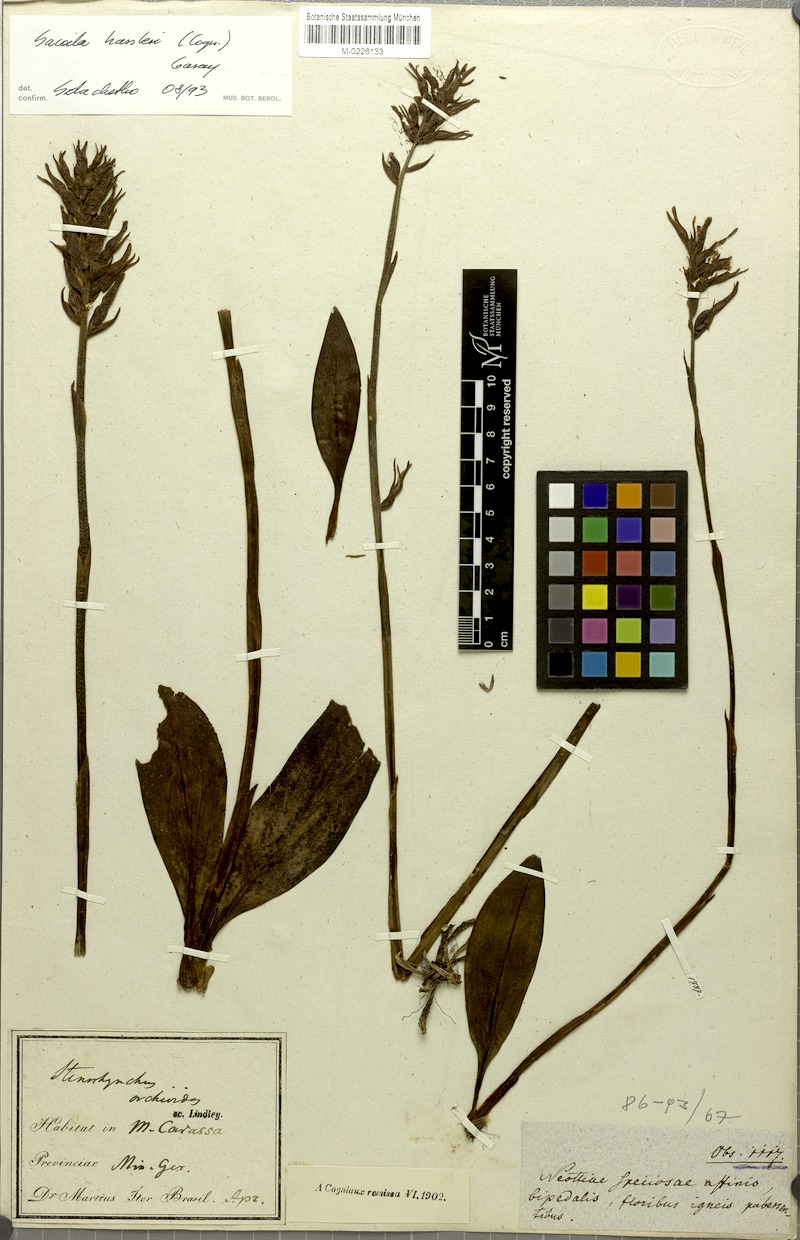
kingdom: Plantae
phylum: Tracheophyta
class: Liliopsida
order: Asparagales
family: Orchidaceae
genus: Sacoila
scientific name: Sacoila hassleri
